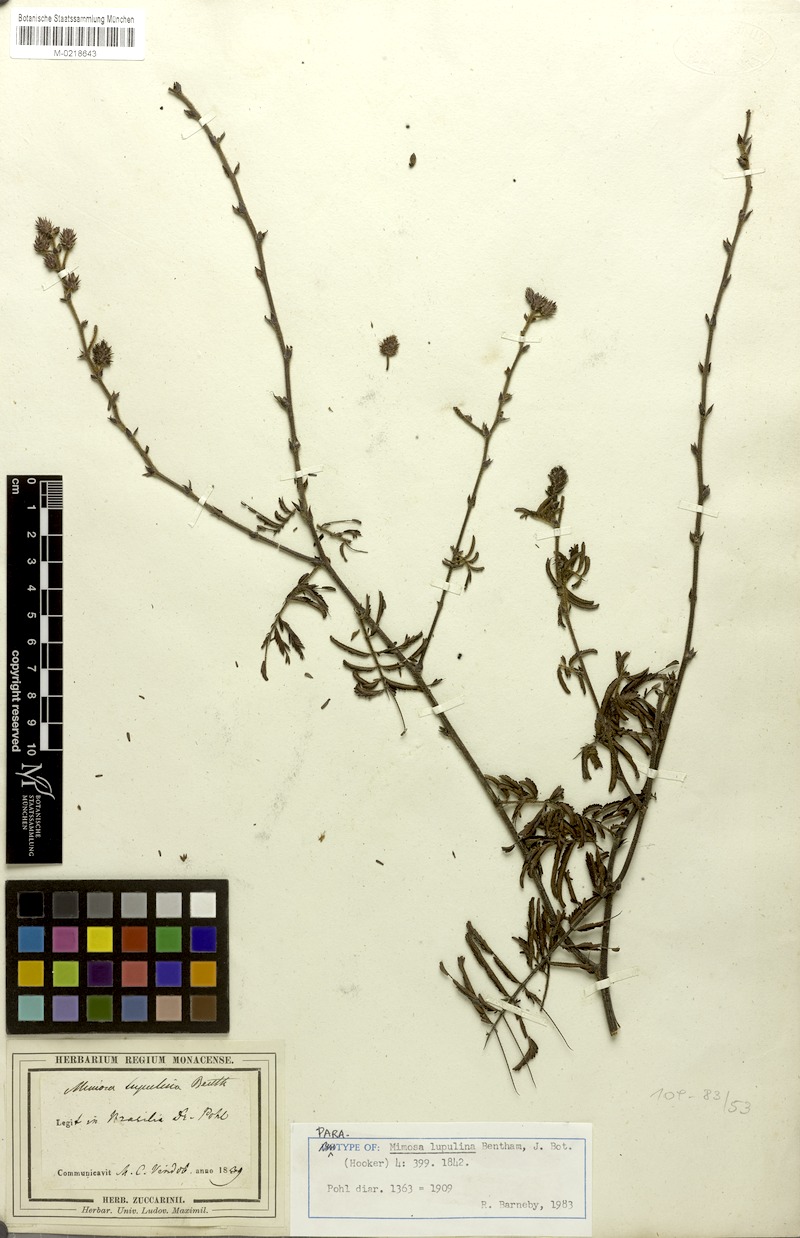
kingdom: Plantae
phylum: Tracheophyta
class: Magnoliopsida
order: Fabales
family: Fabaceae
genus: Mimosa
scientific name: Mimosa somnians
